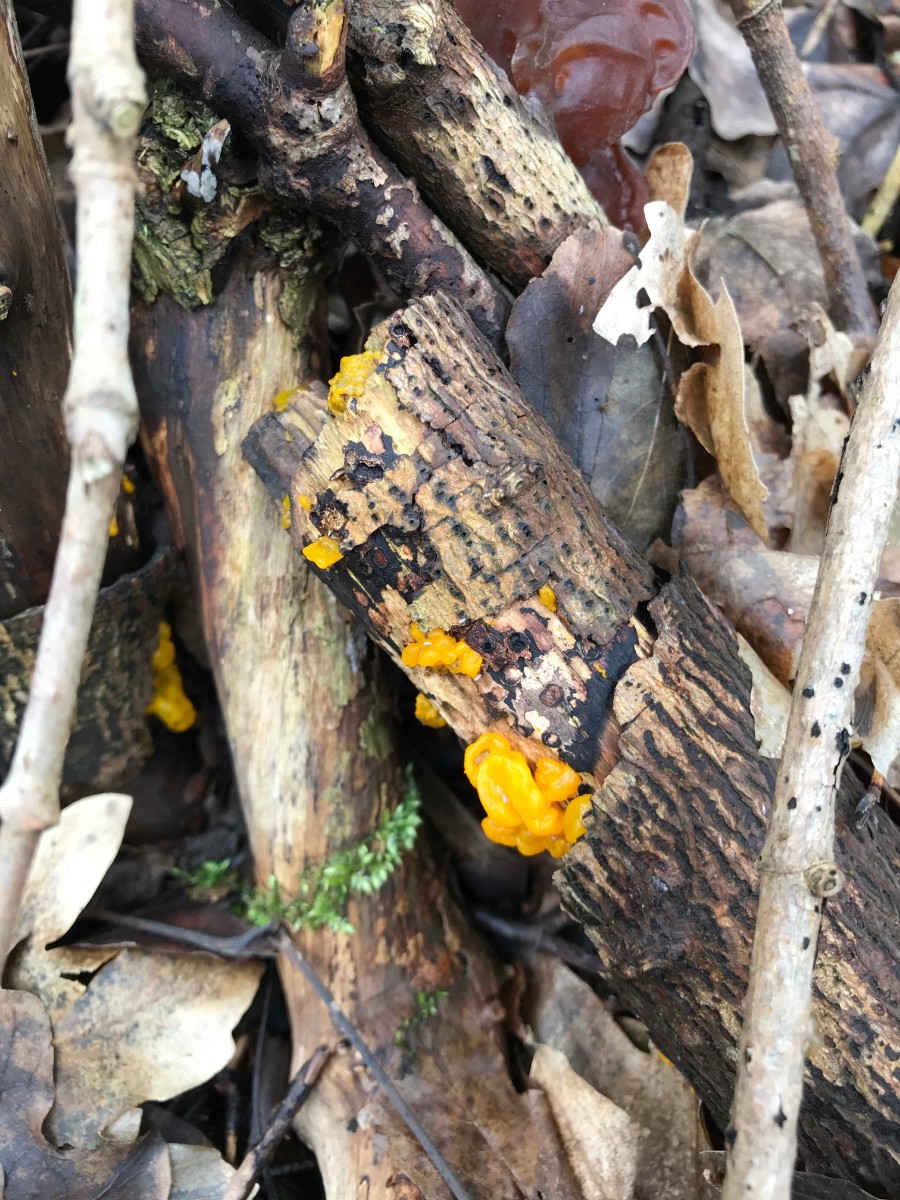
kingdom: Fungi
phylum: Basidiomycota
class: Tremellomycetes
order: Tremellales
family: Tremellaceae
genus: Tremella
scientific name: Tremella mesenterica
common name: gul bævresvamp
